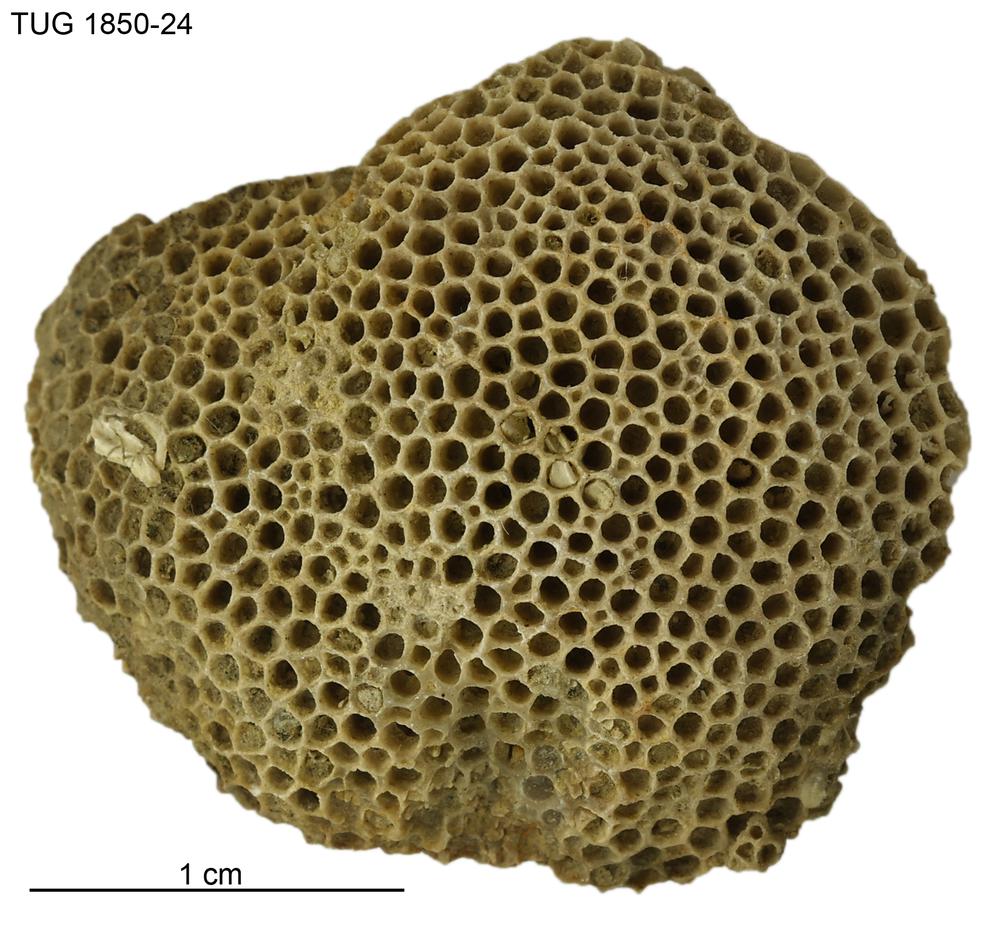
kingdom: Animalia
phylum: Cnidaria
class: Anthozoa
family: Favositidae
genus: Favosites
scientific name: Favosites
